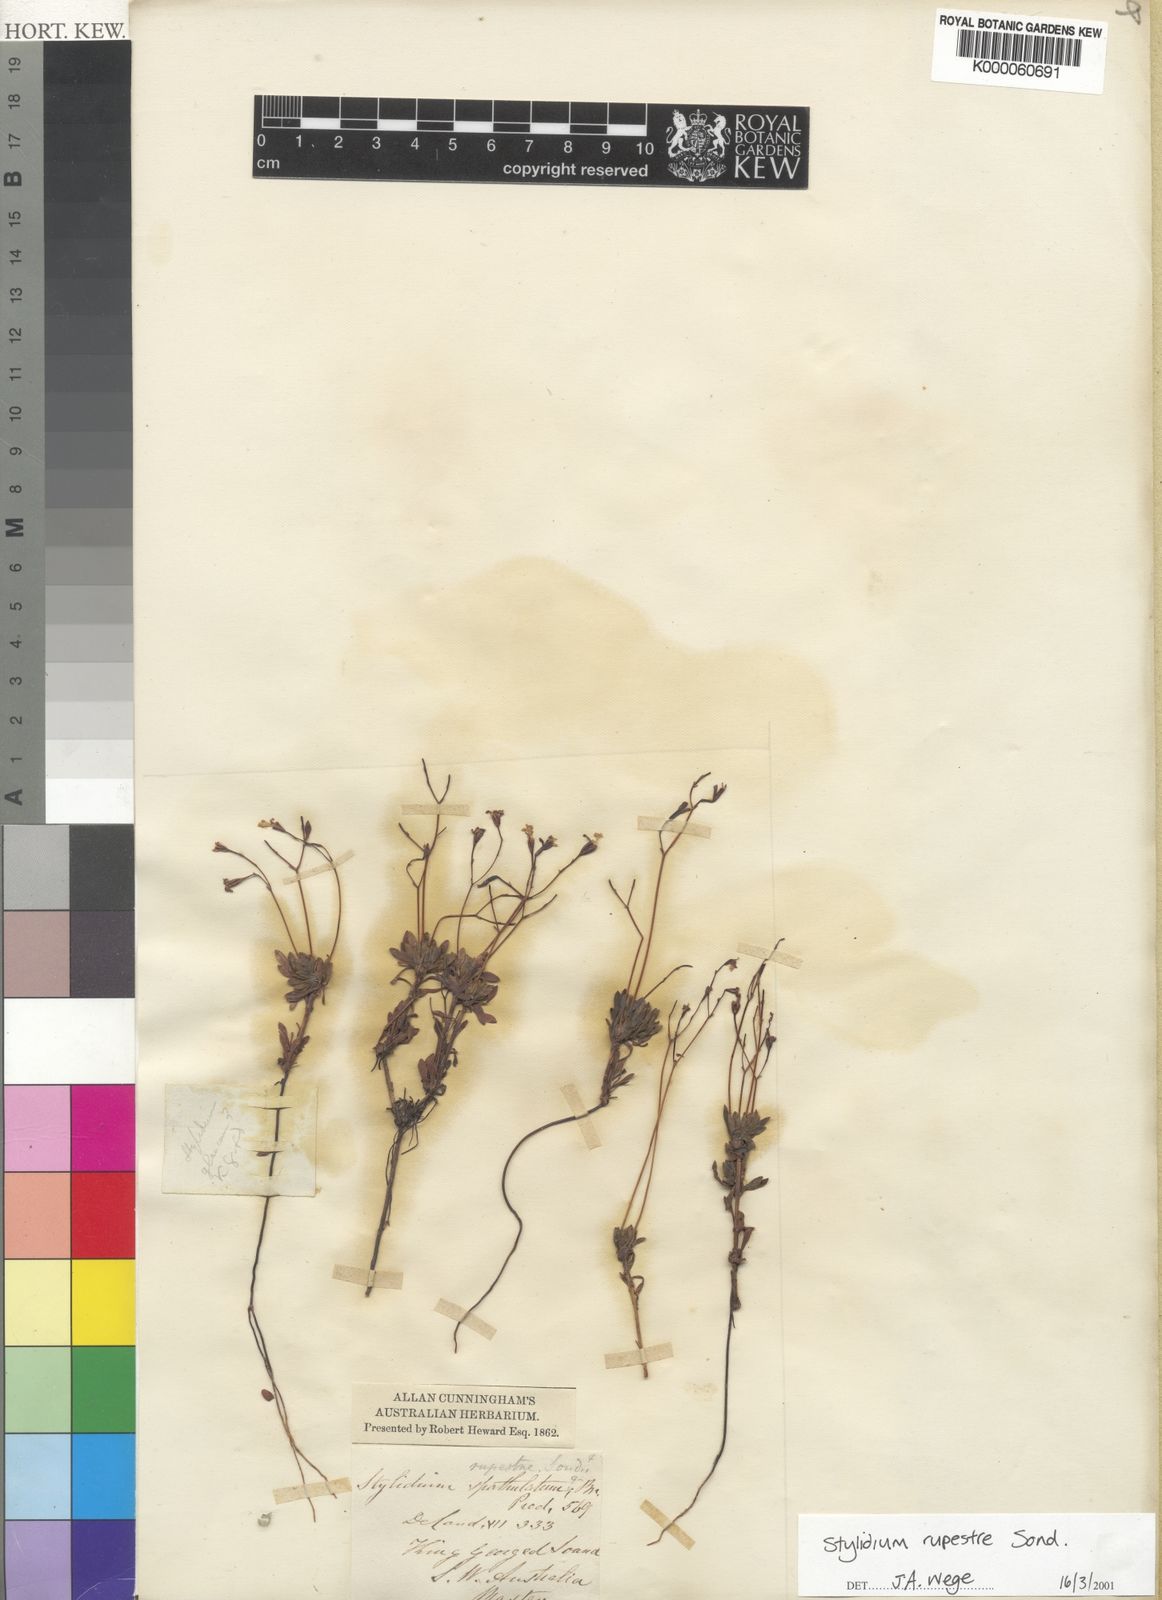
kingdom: Plantae
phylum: Tracheophyta
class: Magnoliopsida
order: Asterales
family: Stylidiaceae
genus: Stylidium
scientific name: Stylidium rupestre
